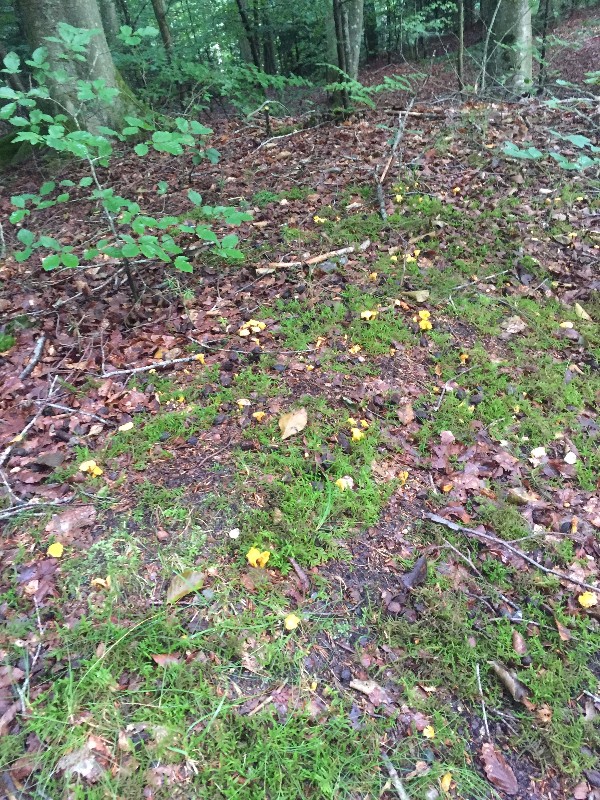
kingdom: Fungi
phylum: Basidiomycota
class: Agaricomycetes
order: Cantharellales
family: Hydnaceae
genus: Cantharellus
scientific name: Cantharellus cibarius
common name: almindelig kantarel
